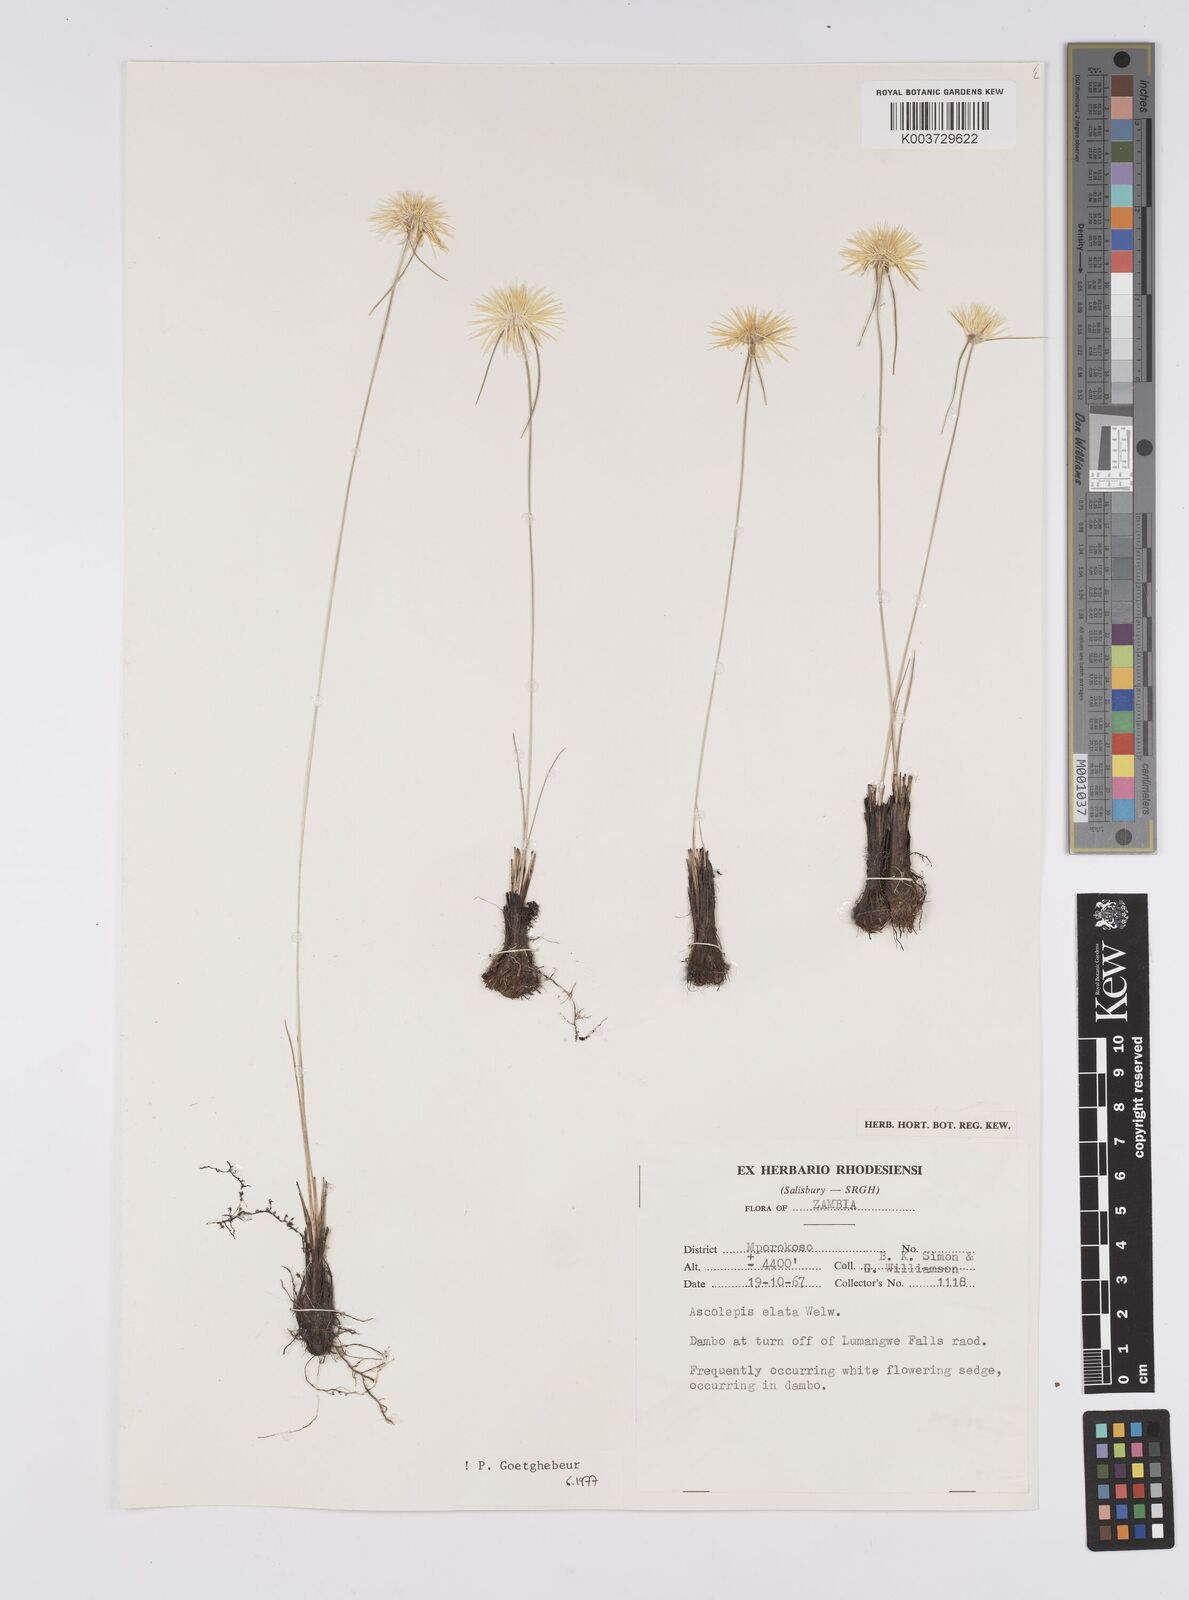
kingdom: Plantae
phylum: Tracheophyta
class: Liliopsida
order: Poales
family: Cyperaceae
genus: Cyperus
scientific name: Cyperus
